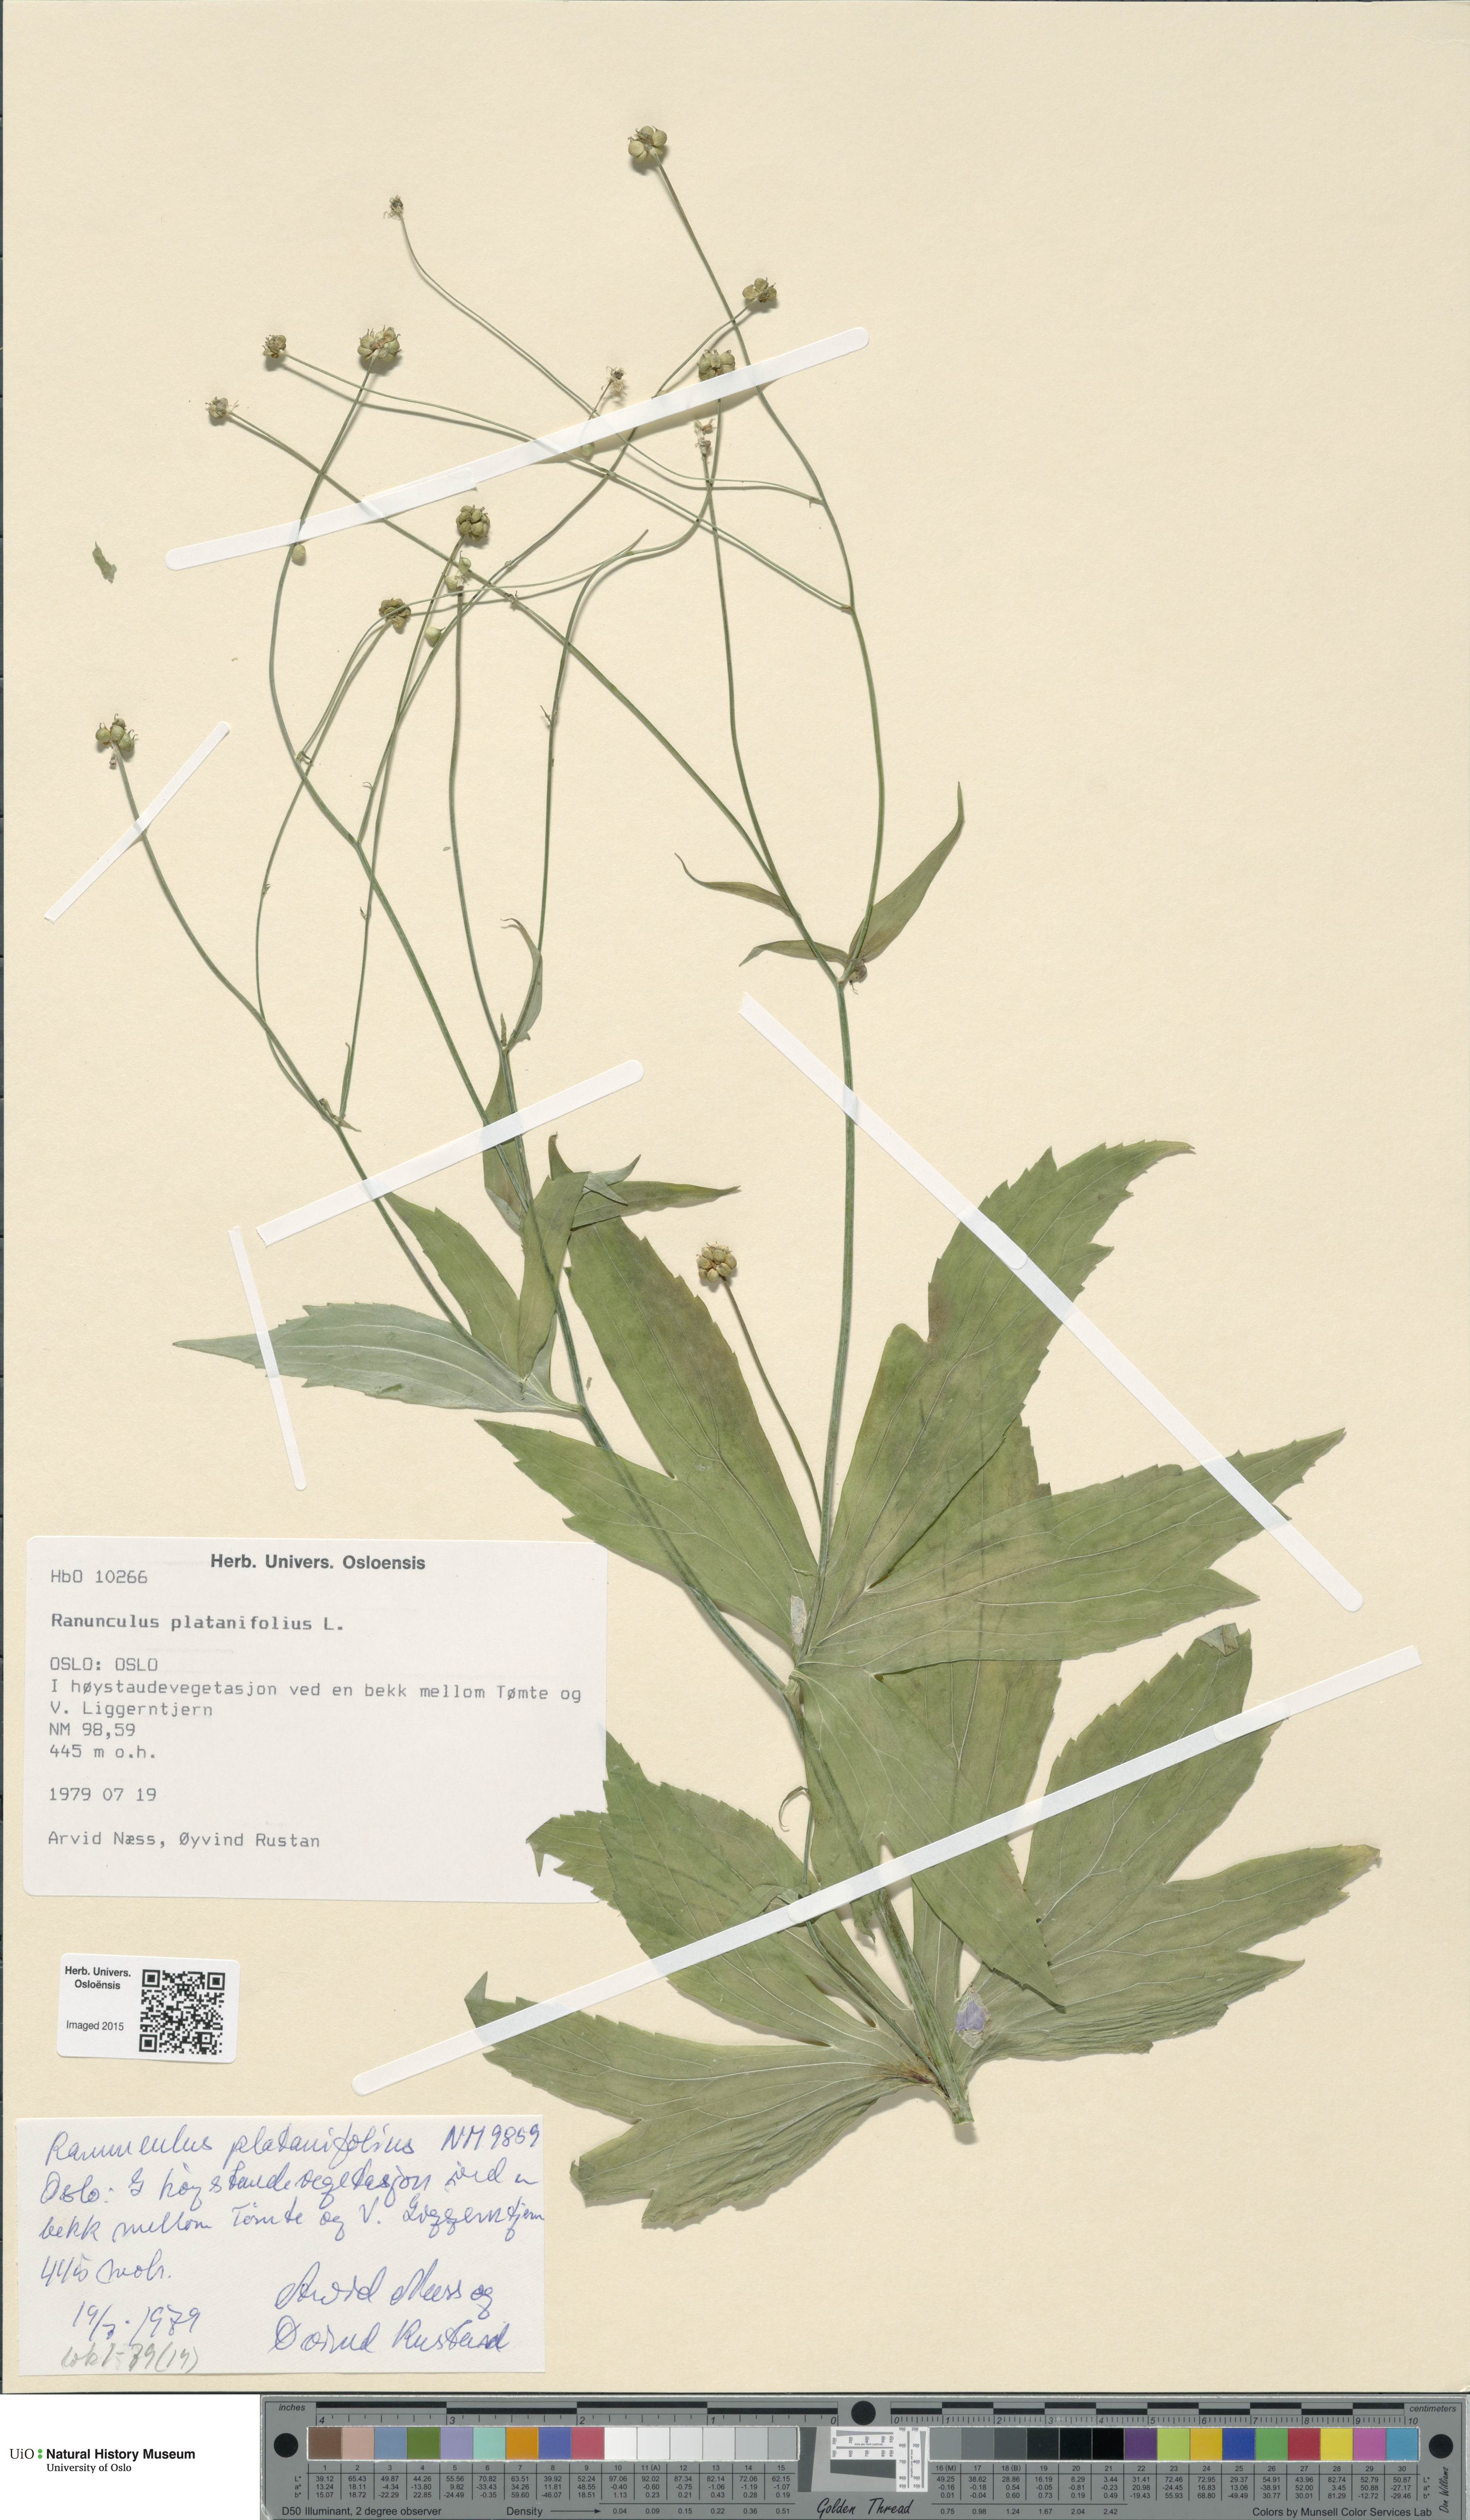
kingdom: Plantae
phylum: Tracheophyta
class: Magnoliopsida
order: Ranunculales
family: Ranunculaceae
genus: Ranunculus
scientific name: Ranunculus platanifolius
